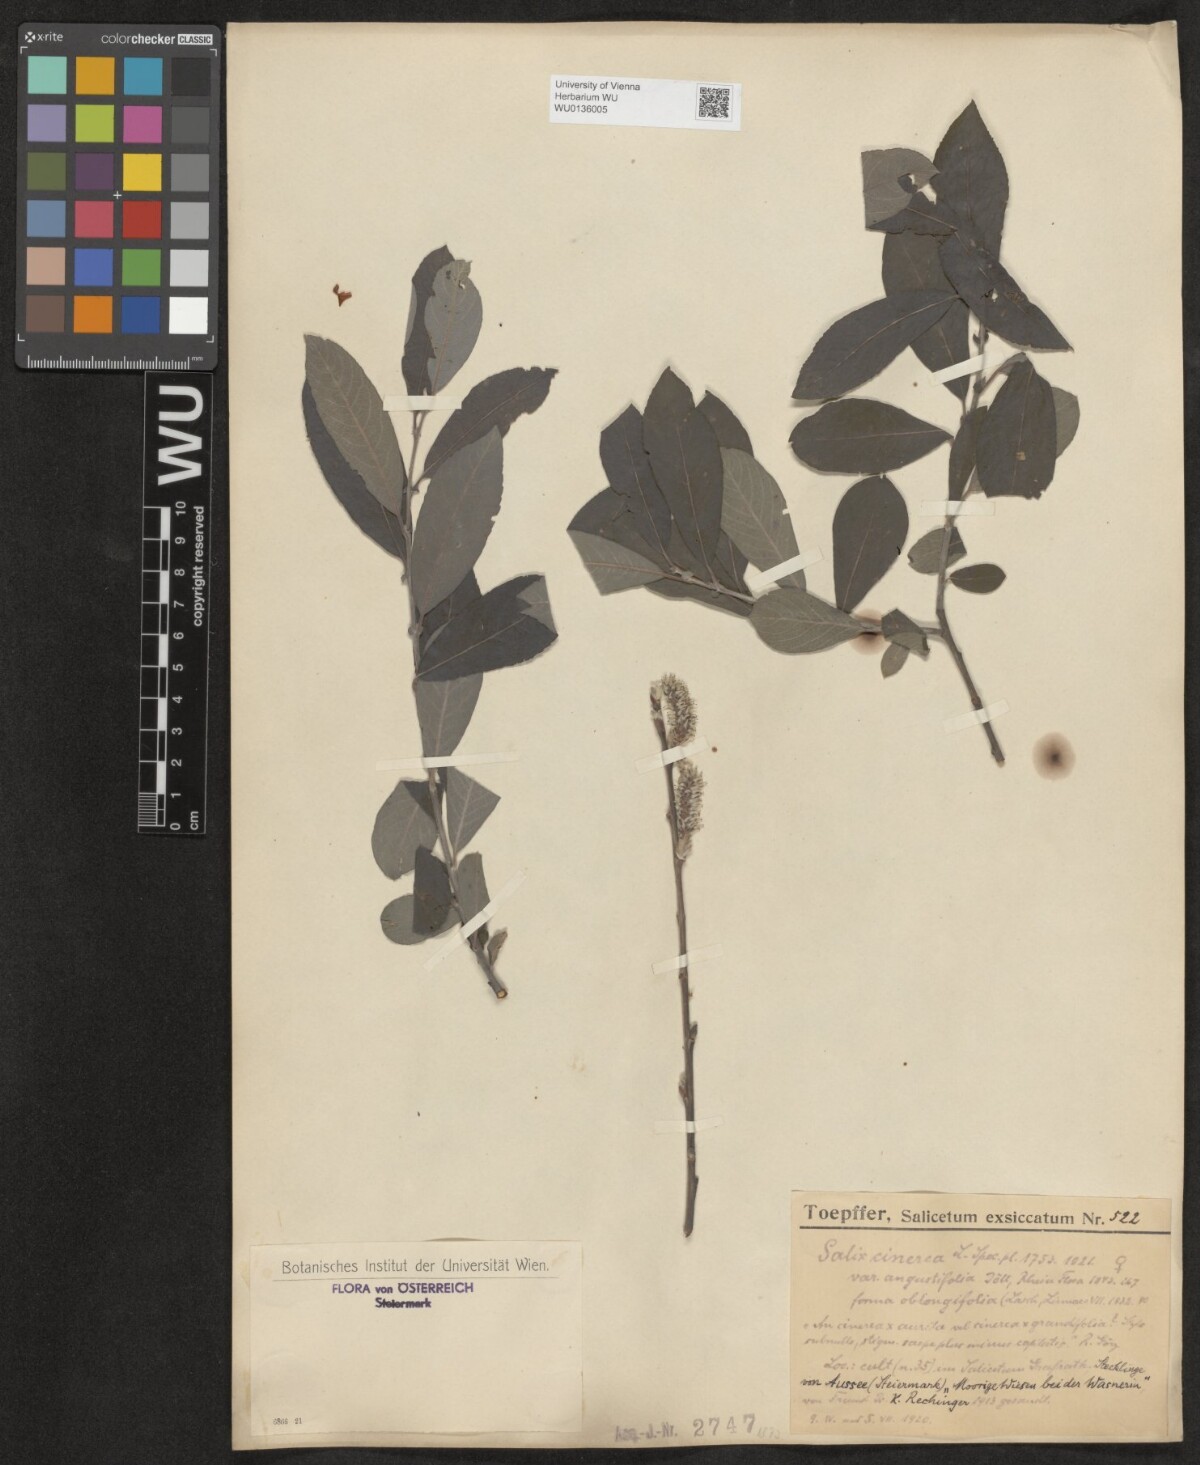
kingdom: Plantae
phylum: Tracheophyta
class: Magnoliopsida
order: Malpighiales
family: Salicaceae
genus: Salix
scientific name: Salix cinerea
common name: Common sallow
